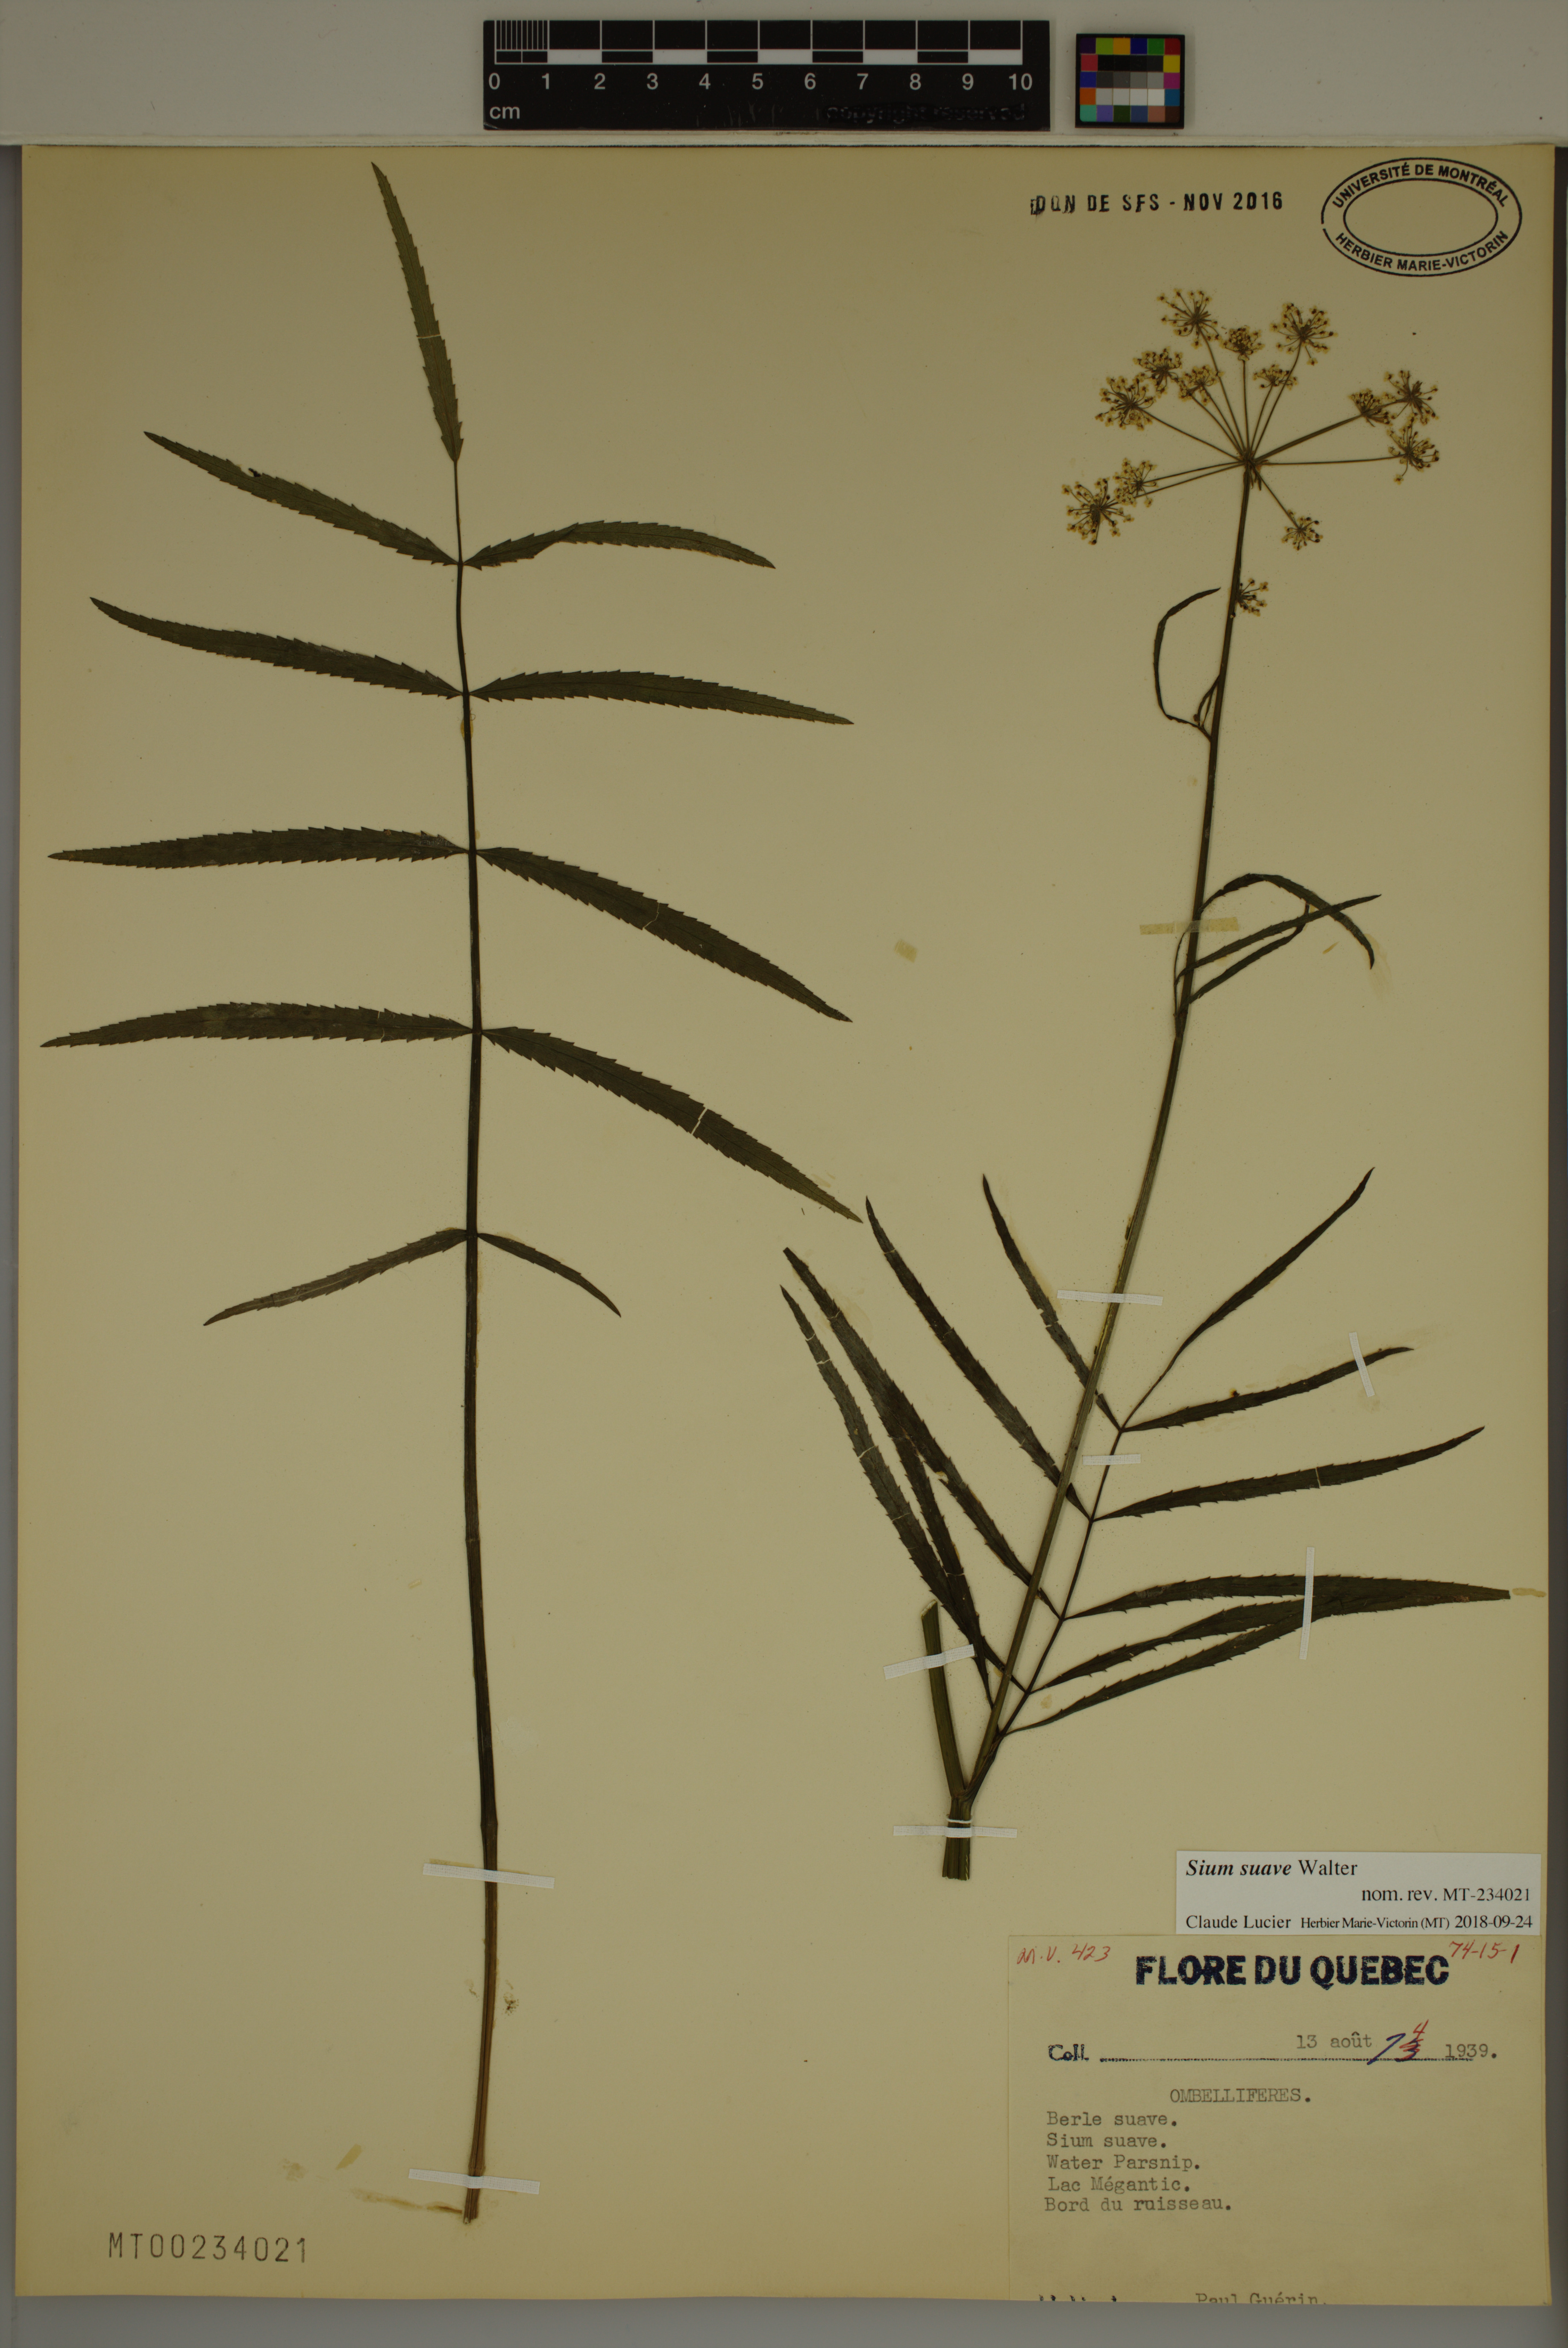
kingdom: Plantae
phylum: Tracheophyta
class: Magnoliopsida
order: Apiales
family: Apiaceae
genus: Sium
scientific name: Sium suave
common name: Hemlock water-parsnip
